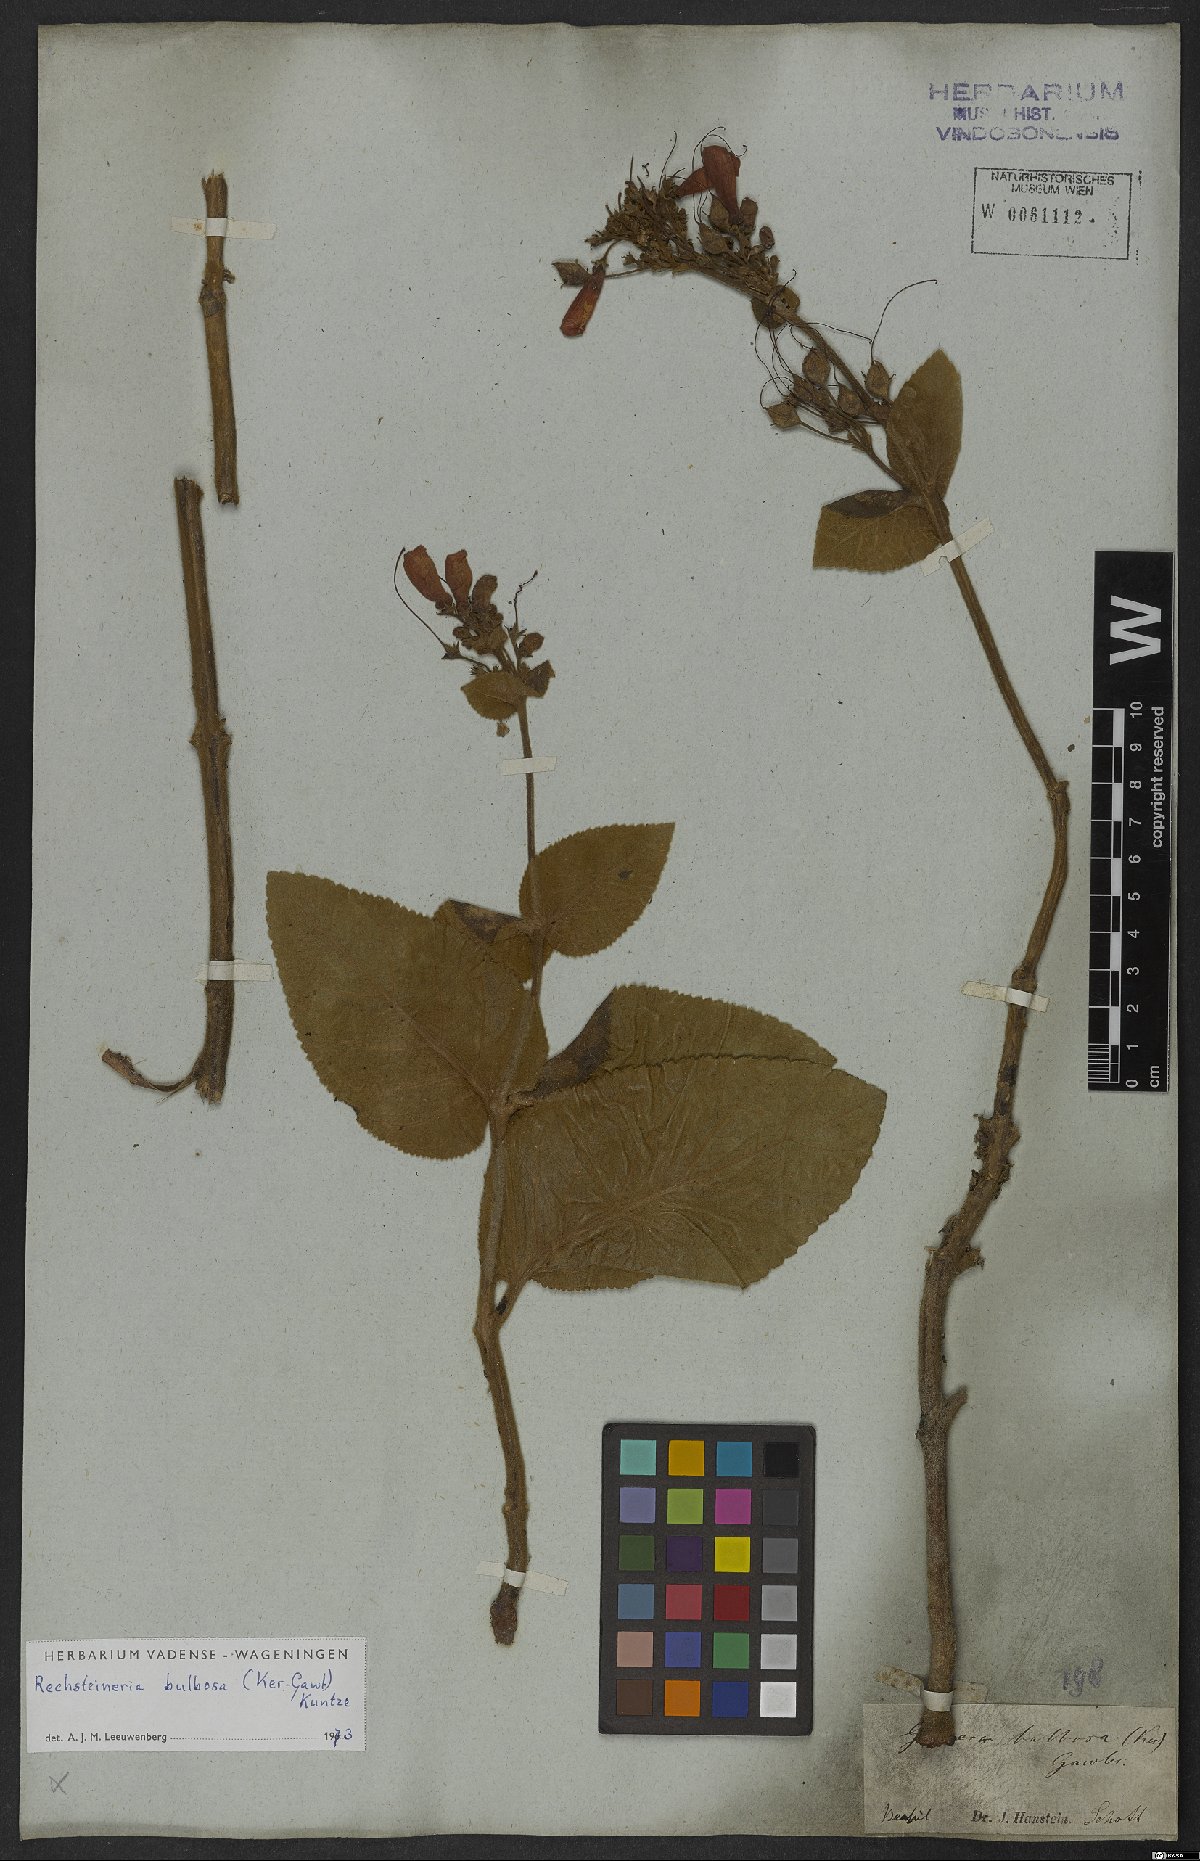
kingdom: Plantae
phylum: Tracheophyta
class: Magnoliopsida
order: Lamiales
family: Gesneriaceae
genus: Sinningia
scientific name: Sinningia bulbosa
